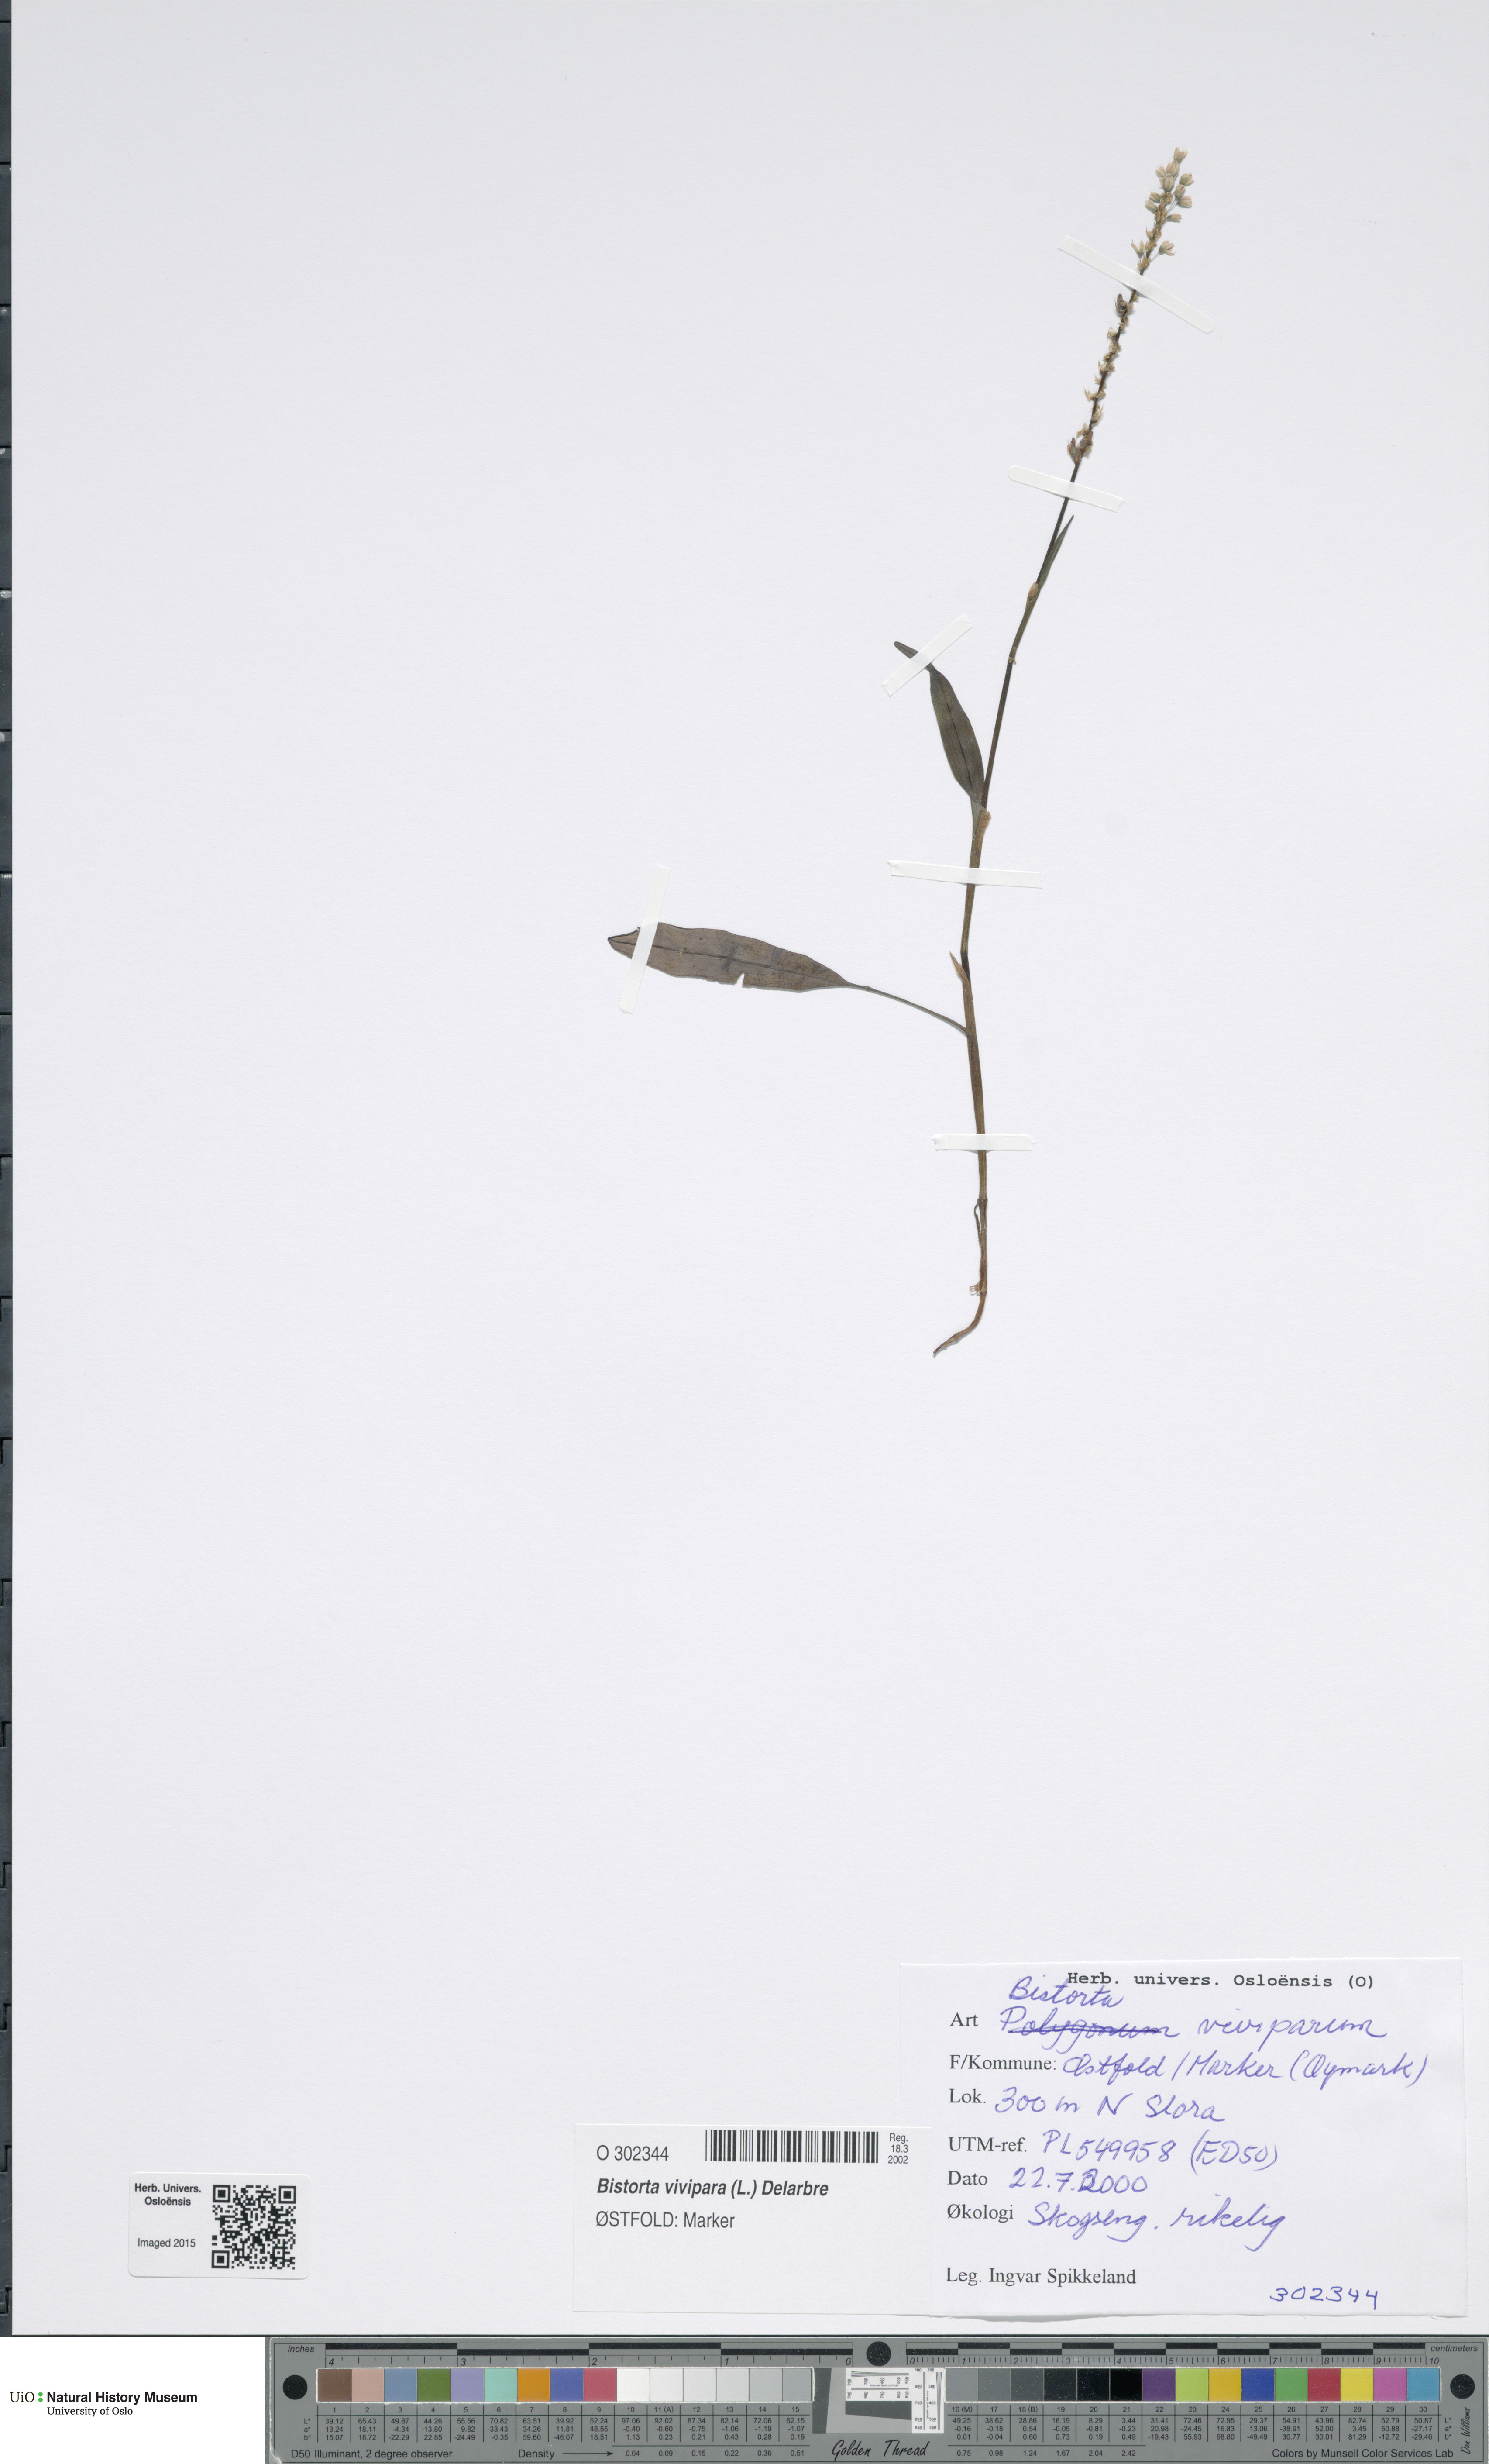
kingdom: Plantae
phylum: Tracheophyta
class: Magnoliopsida
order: Caryophyllales
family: Polygonaceae
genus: Bistorta
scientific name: Bistorta vivipara
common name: Alpine bistort
